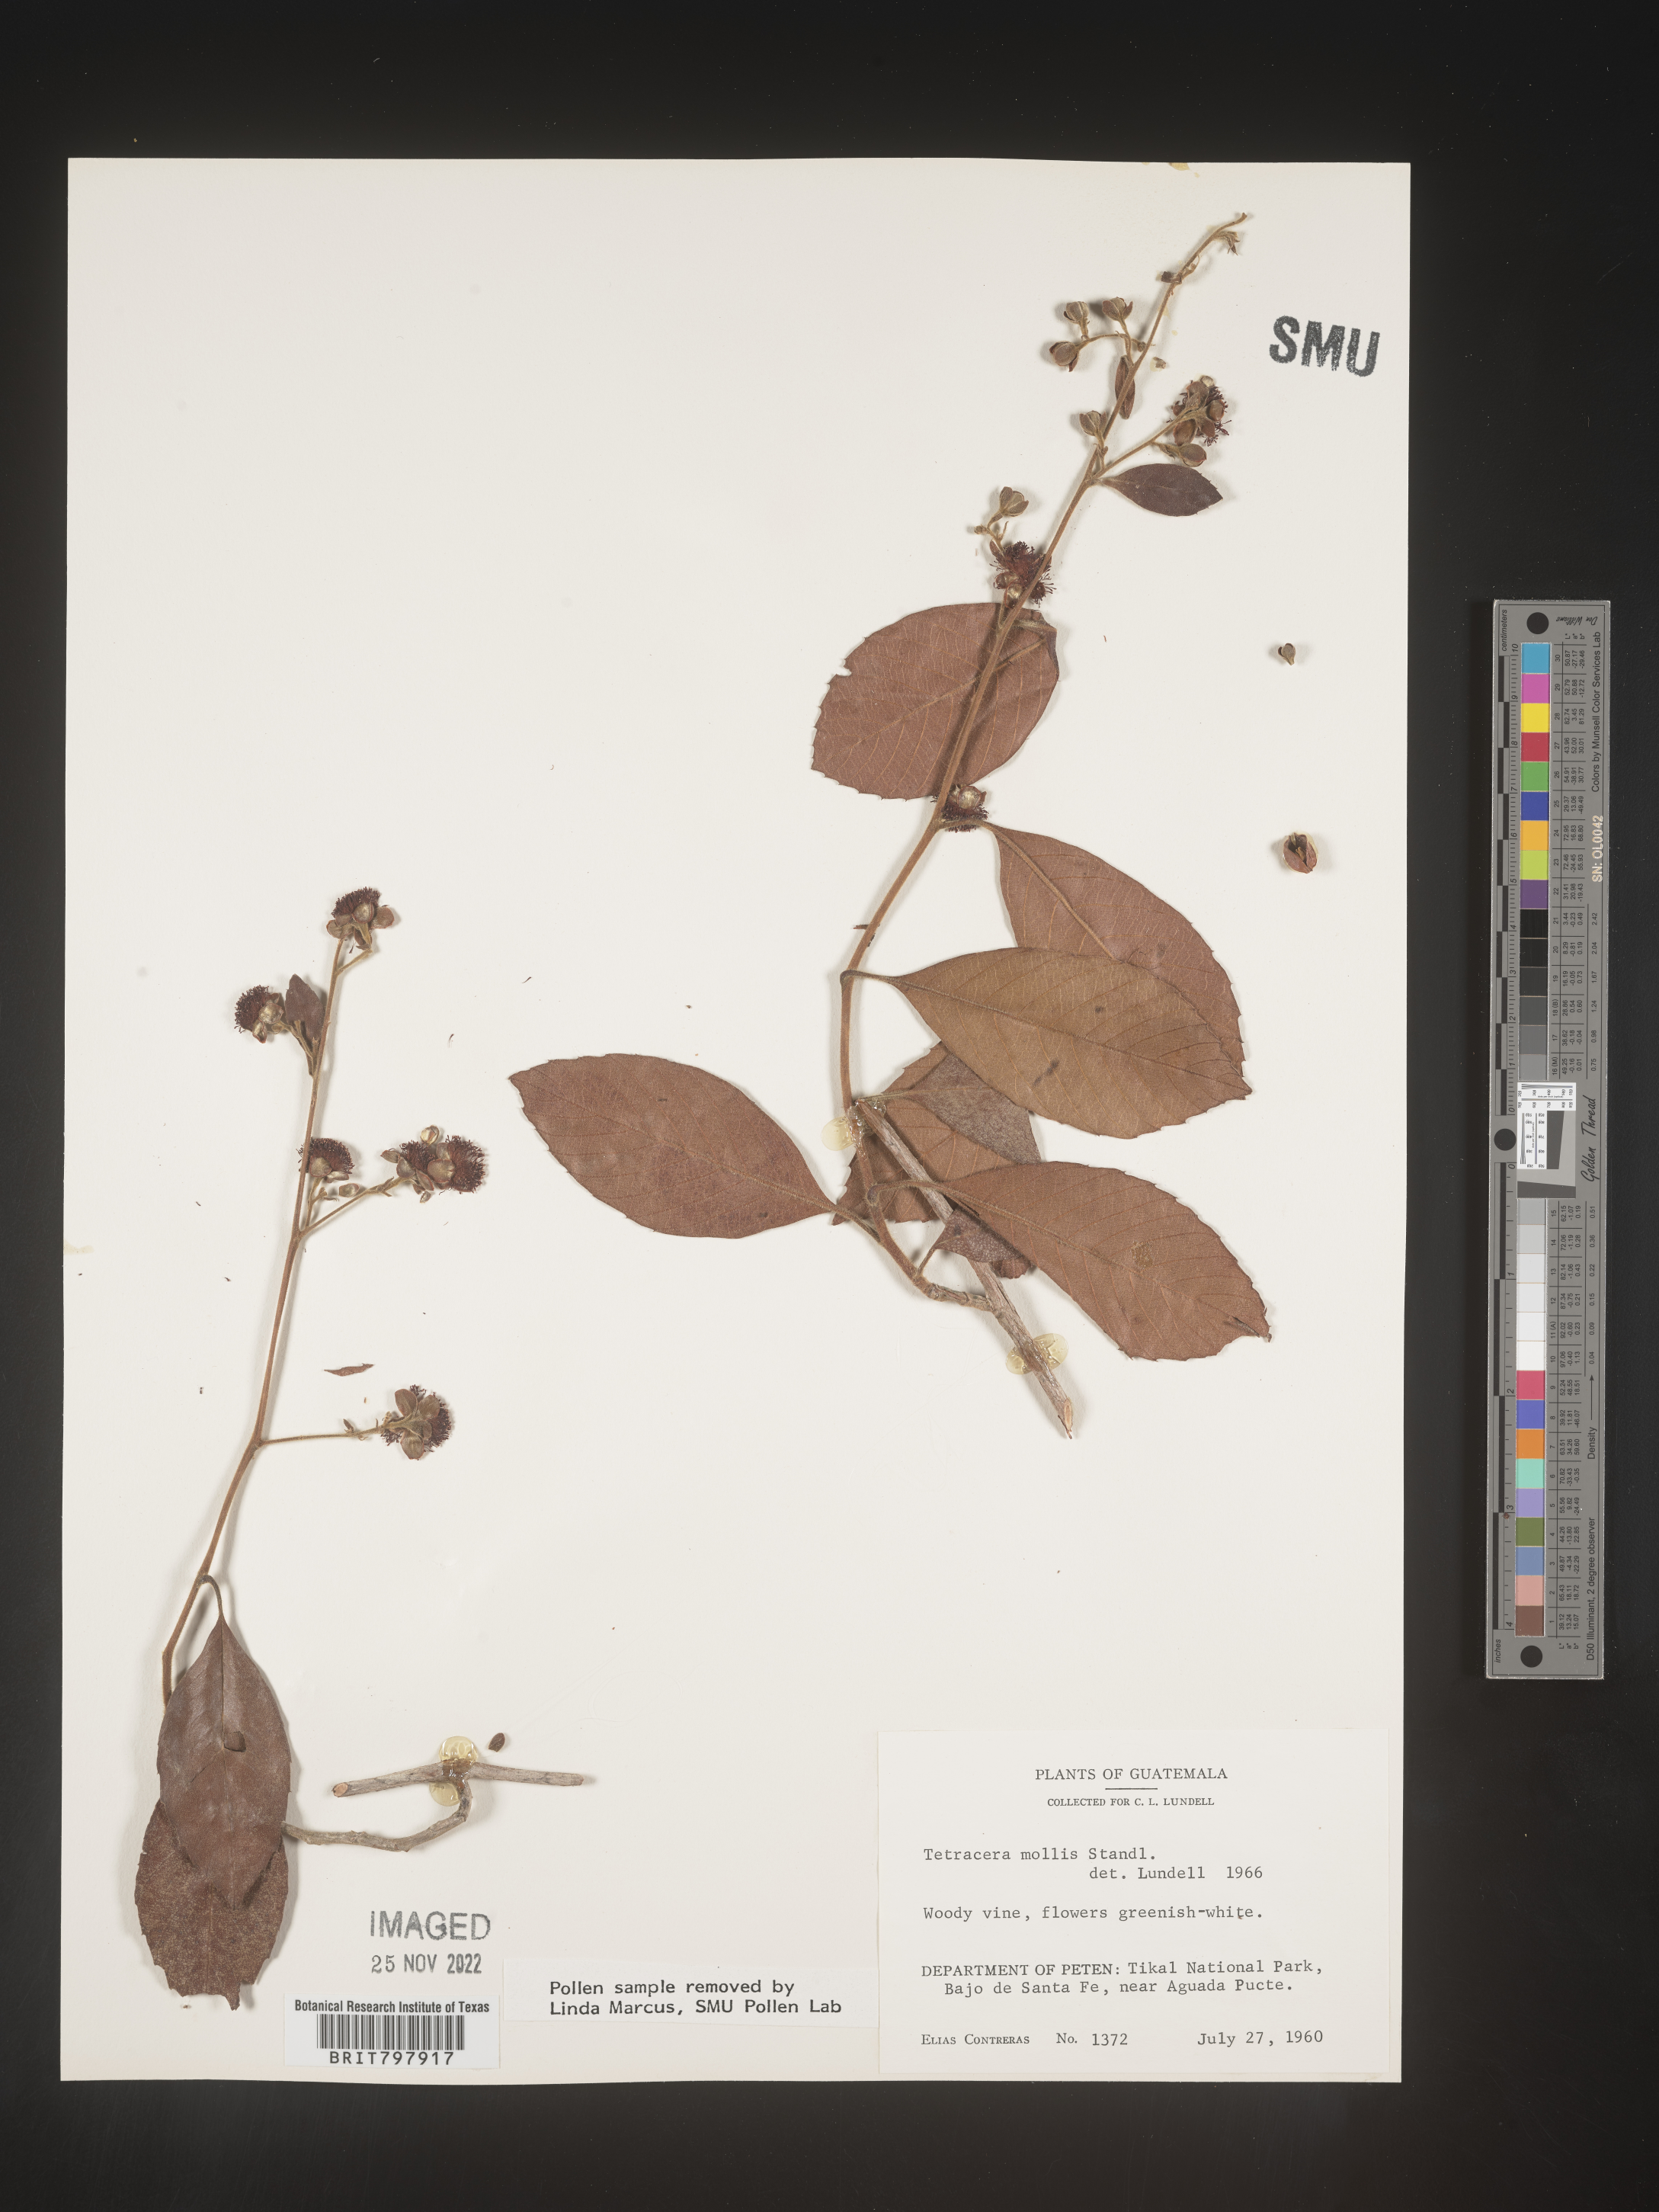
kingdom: Plantae
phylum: Tracheophyta
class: Magnoliopsida
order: Dilleniales
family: Dilleniaceae
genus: Tetracera
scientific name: Tetracera
